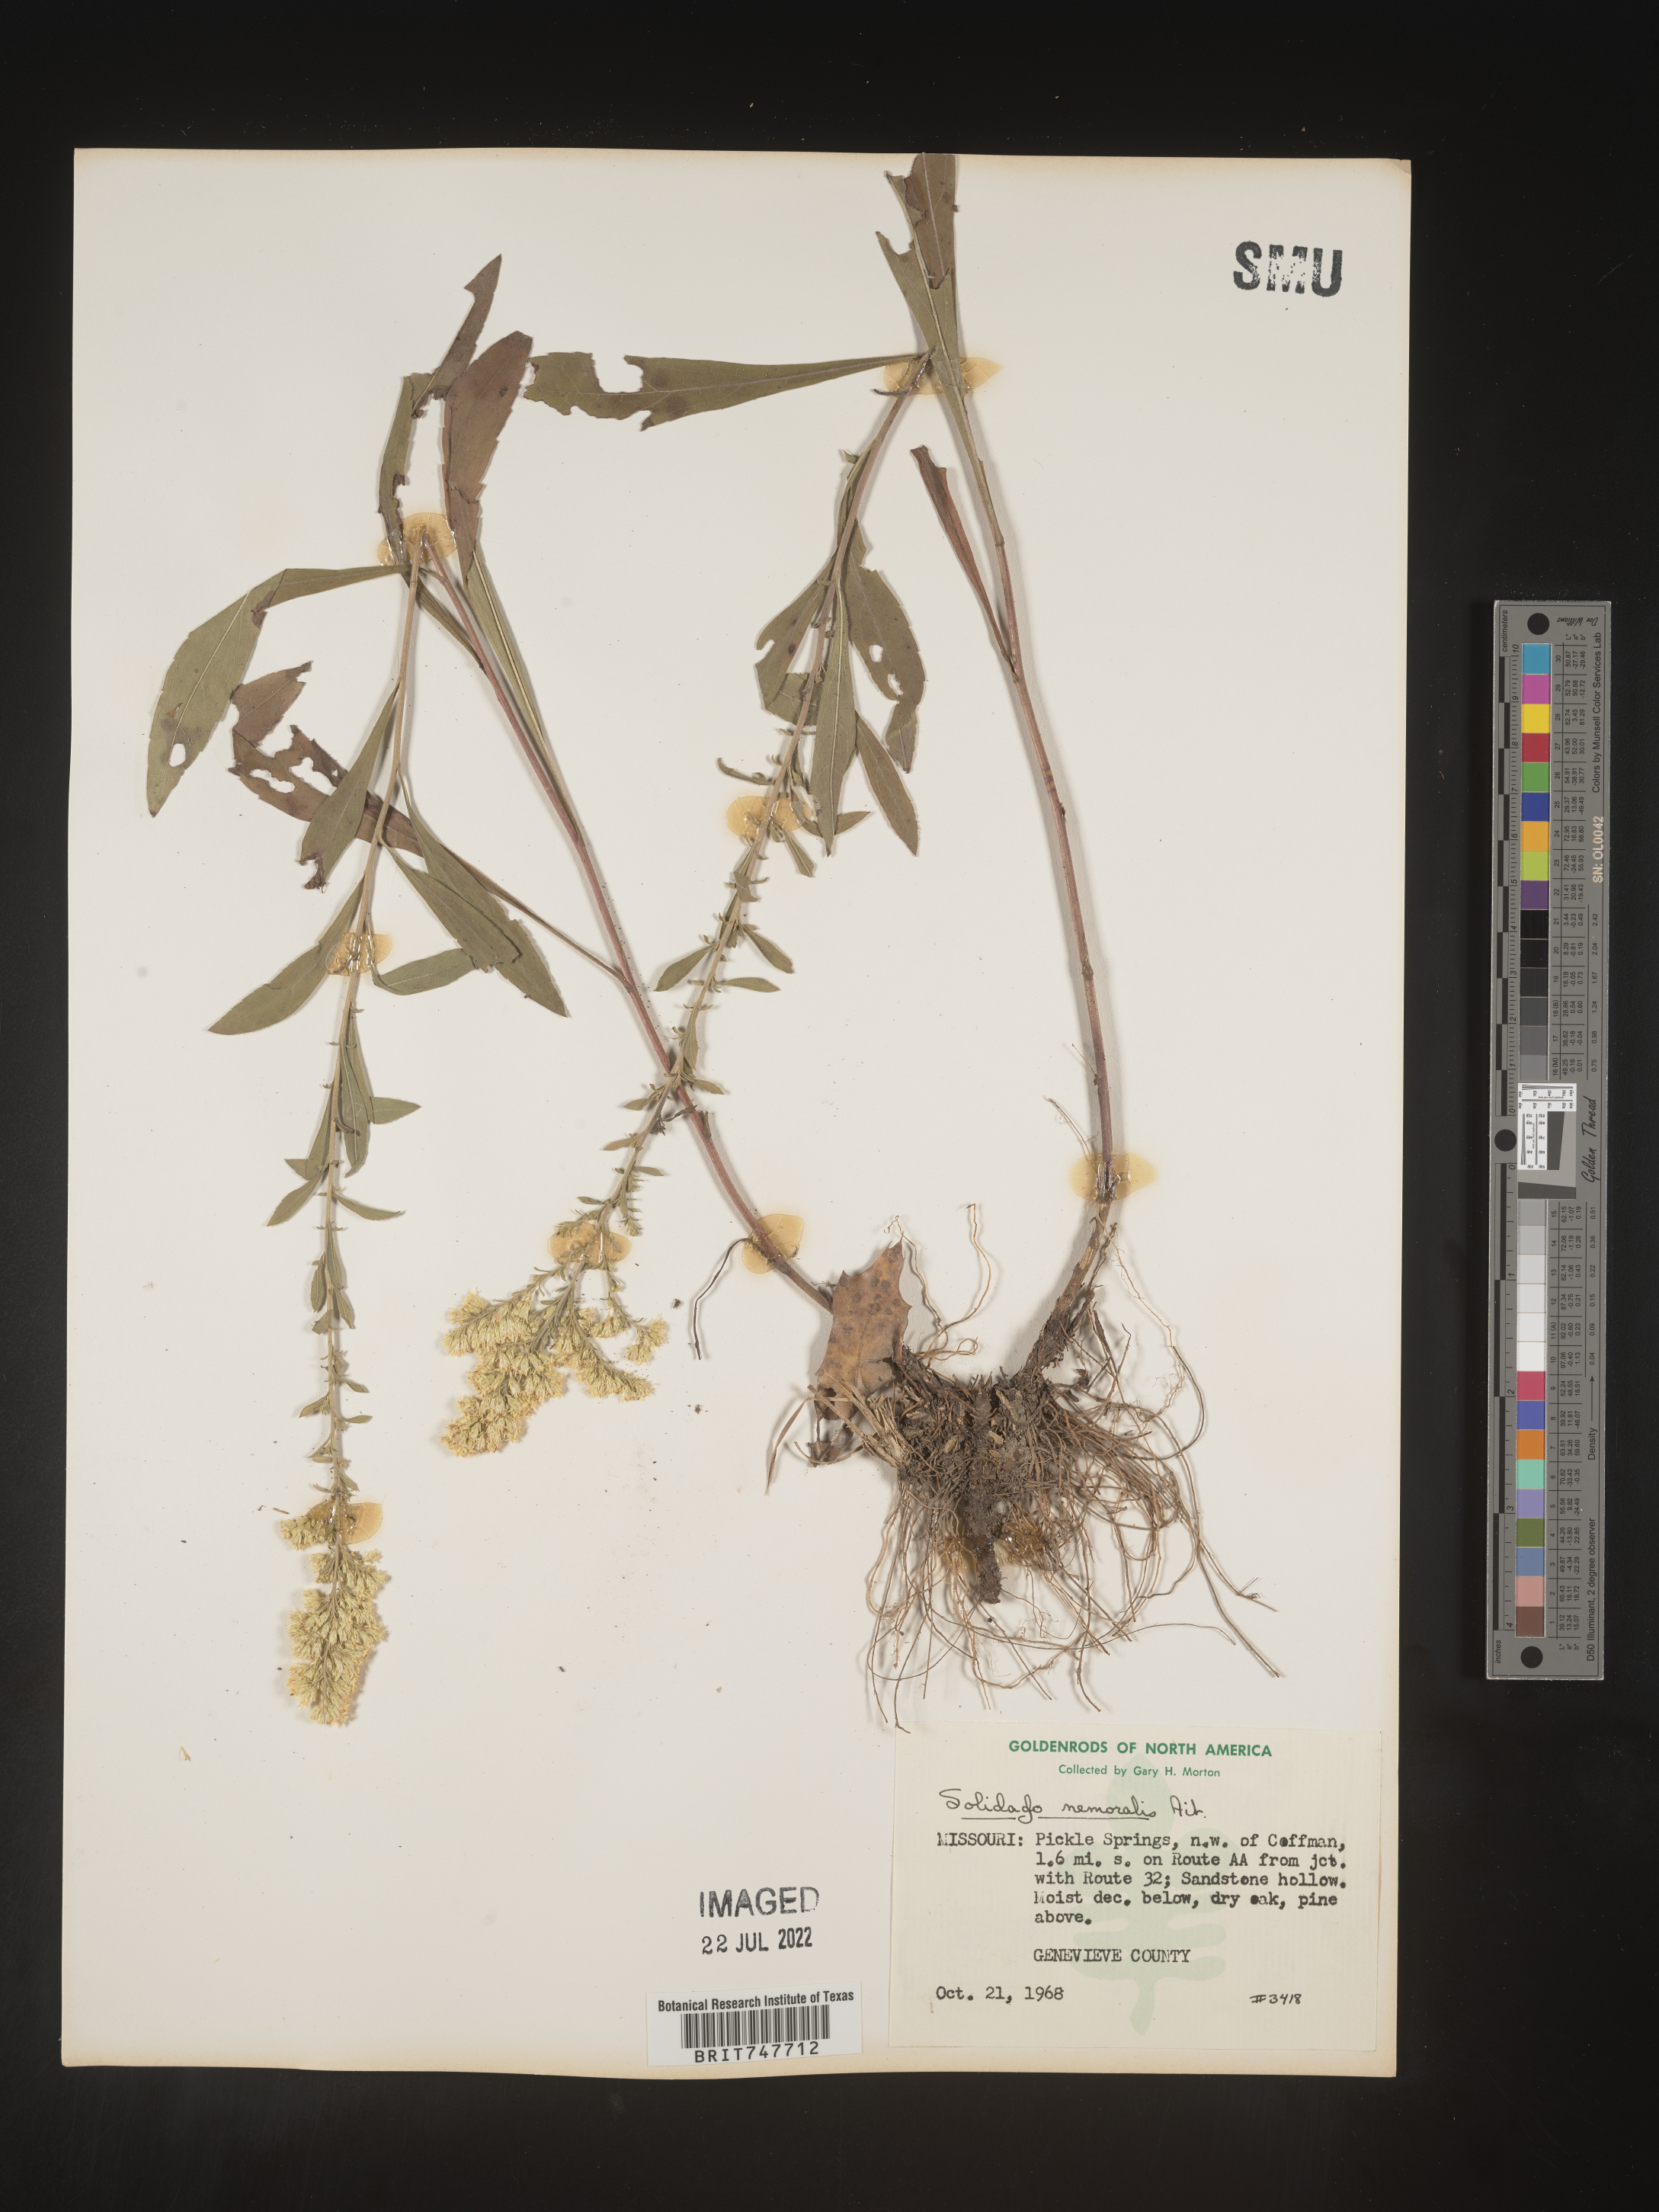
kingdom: Plantae
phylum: Tracheophyta
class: Magnoliopsida
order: Asterales
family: Asteraceae
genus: Solidago
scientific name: Solidago nemoralis
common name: Grey goldenrod
